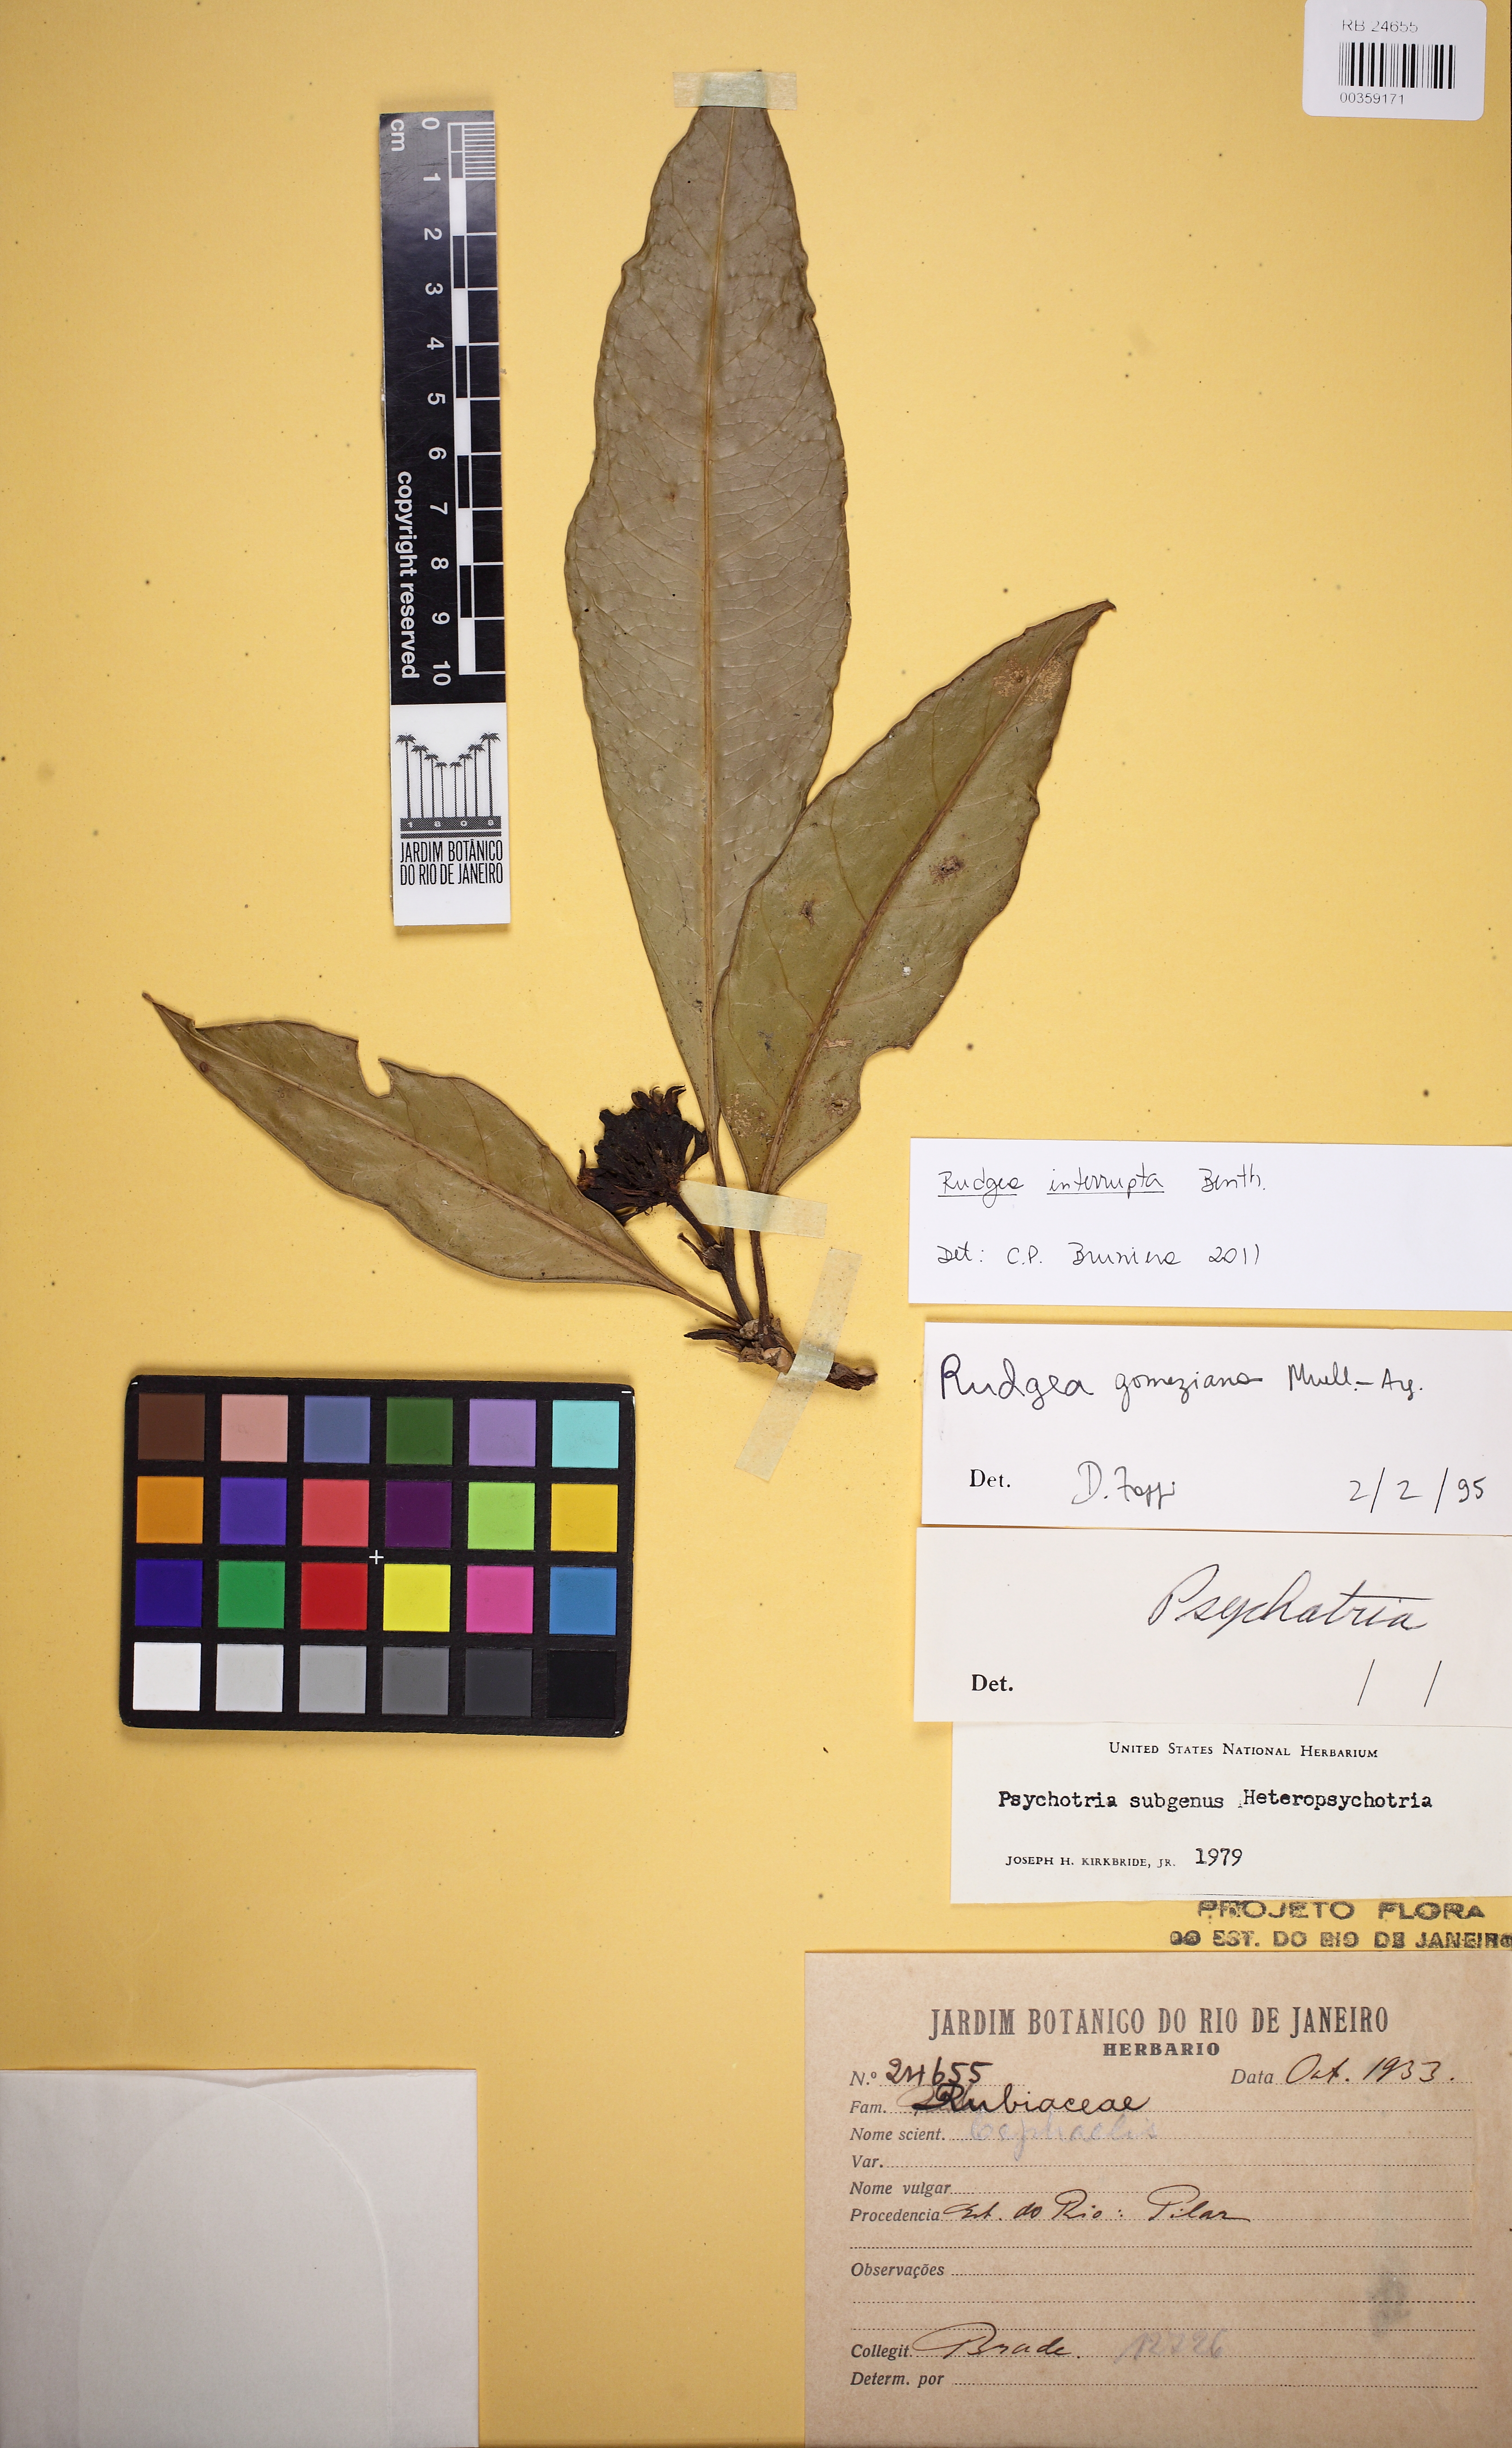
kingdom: Plantae
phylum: Tracheophyta
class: Magnoliopsida
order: Gentianales
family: Rubiaceae
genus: Rudgea
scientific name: Rudgea interrupta
